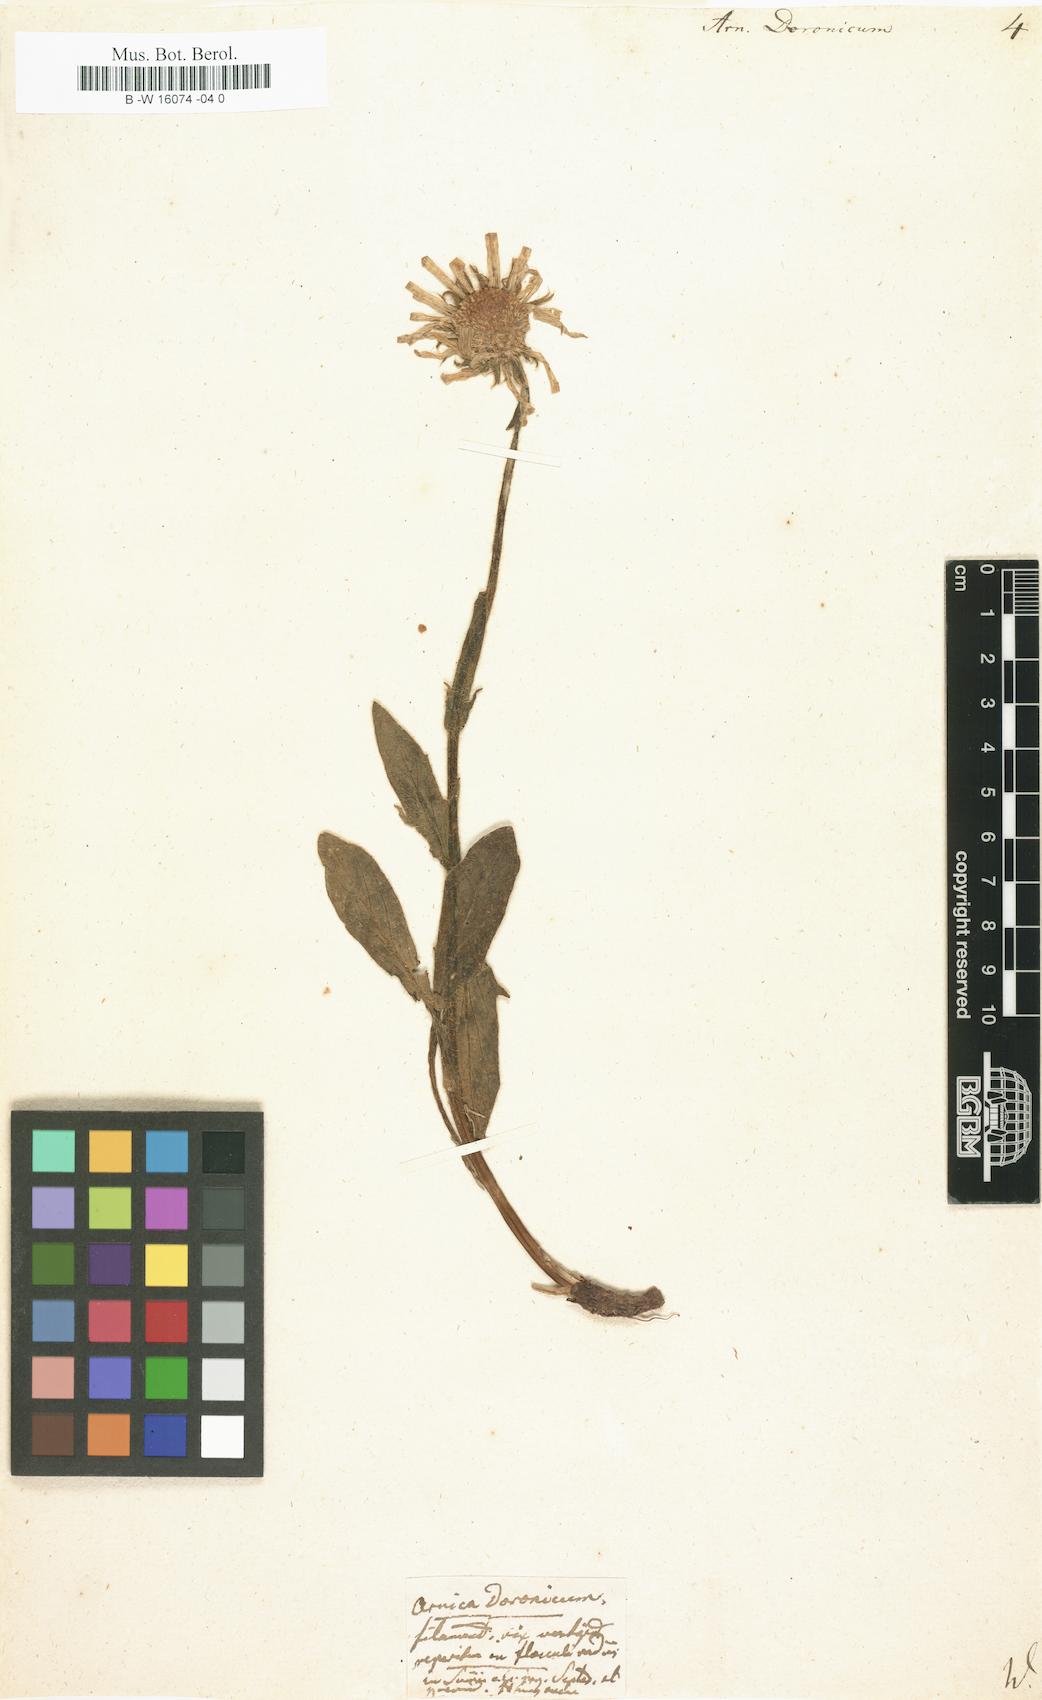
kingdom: Plantae
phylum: Tracheophyta
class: Magnoliopsida
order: Asterales
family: Asteraceae
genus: Doronicum
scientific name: Doronicum clusii
